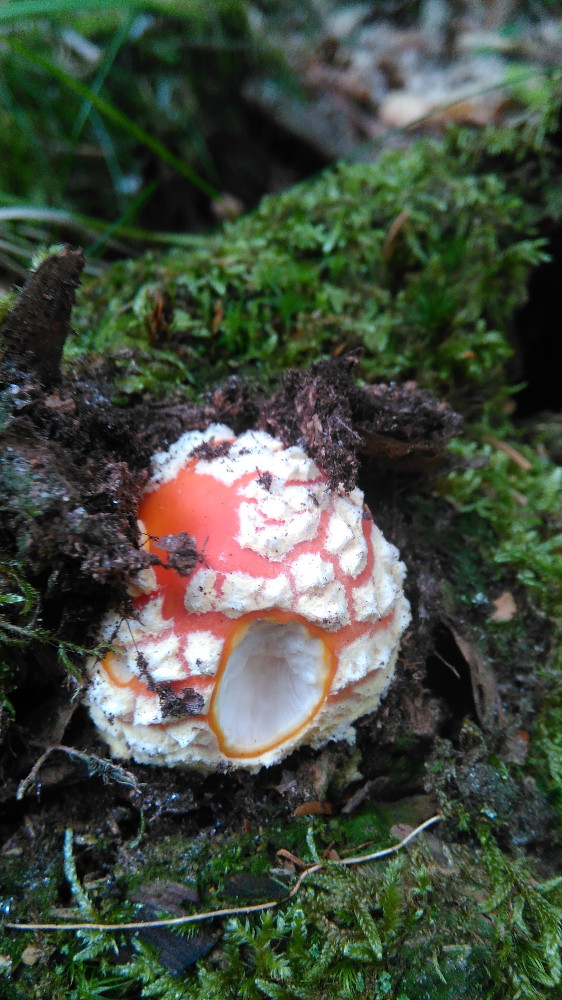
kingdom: Fungi
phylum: Basidiomycota
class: Agaricomycetes
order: Agaricales
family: Amanitaceae
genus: Amanita
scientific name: Amanita muscaria
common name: rød fluesvamp
